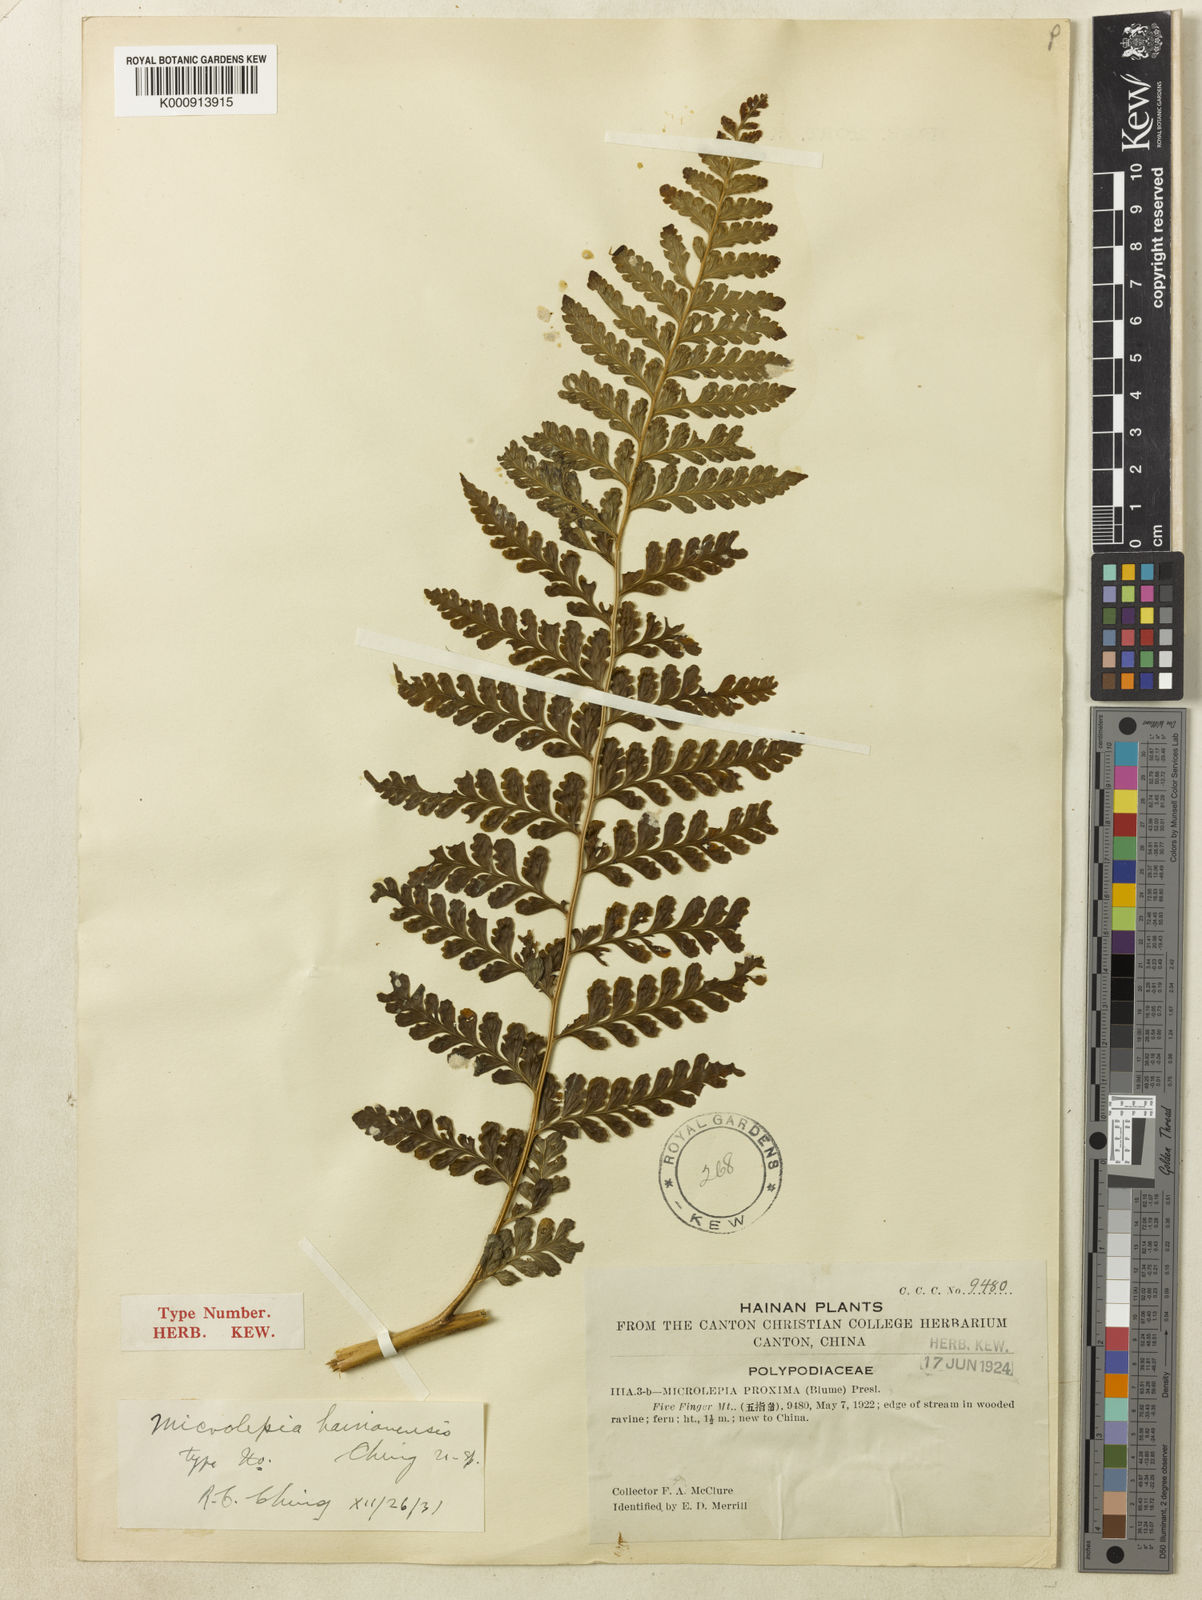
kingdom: Plantae
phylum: Tracheophyta
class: Polypodiopsida
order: Polypodiales
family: Dennstaedtiaceae
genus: Microlepia
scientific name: Microlepia obtusiloba
